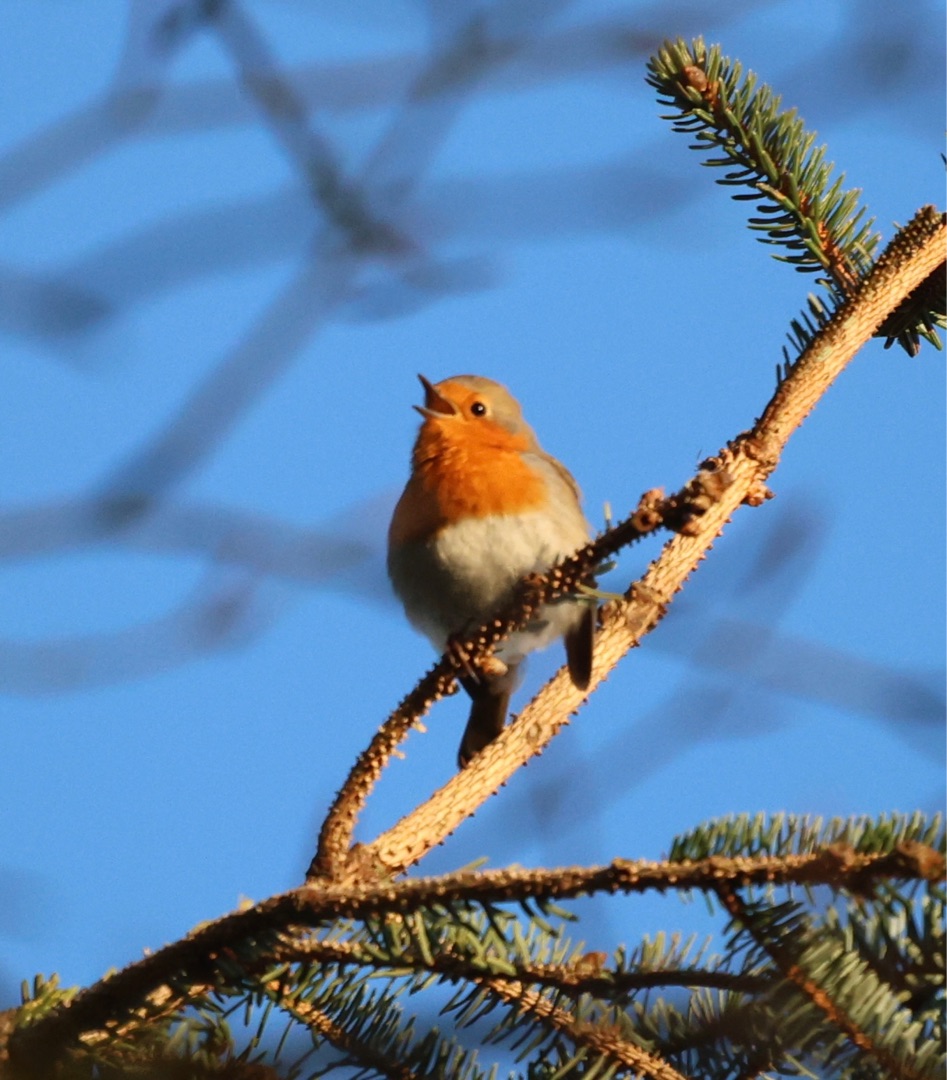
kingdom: Animalia
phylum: Chordata
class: Aves
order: Passeriformes
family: Muscicapidae
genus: Erithacus
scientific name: Erithacus rubecula
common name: Rødhals/rødkælk
